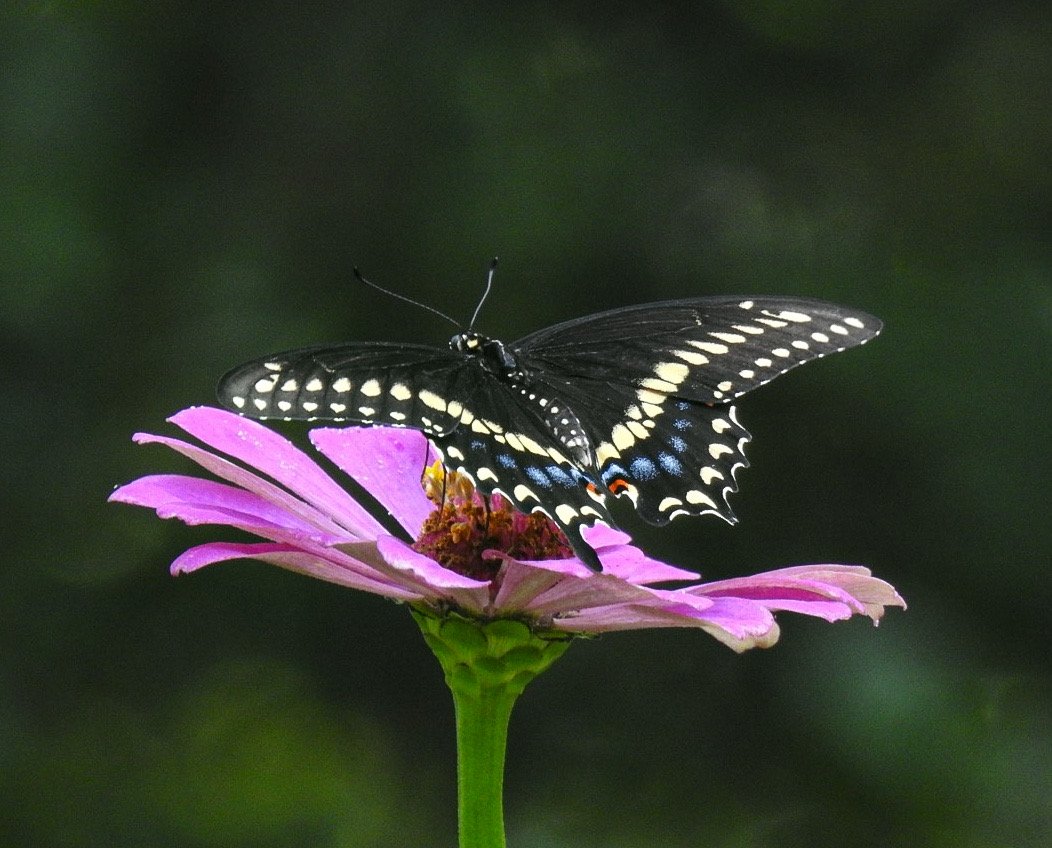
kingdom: Animalia
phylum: Arthropoda
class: Insecta
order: Lepidoptera
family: Papilionidae
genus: Papilio
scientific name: Papilio polyxenes
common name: Black Swallowtail
